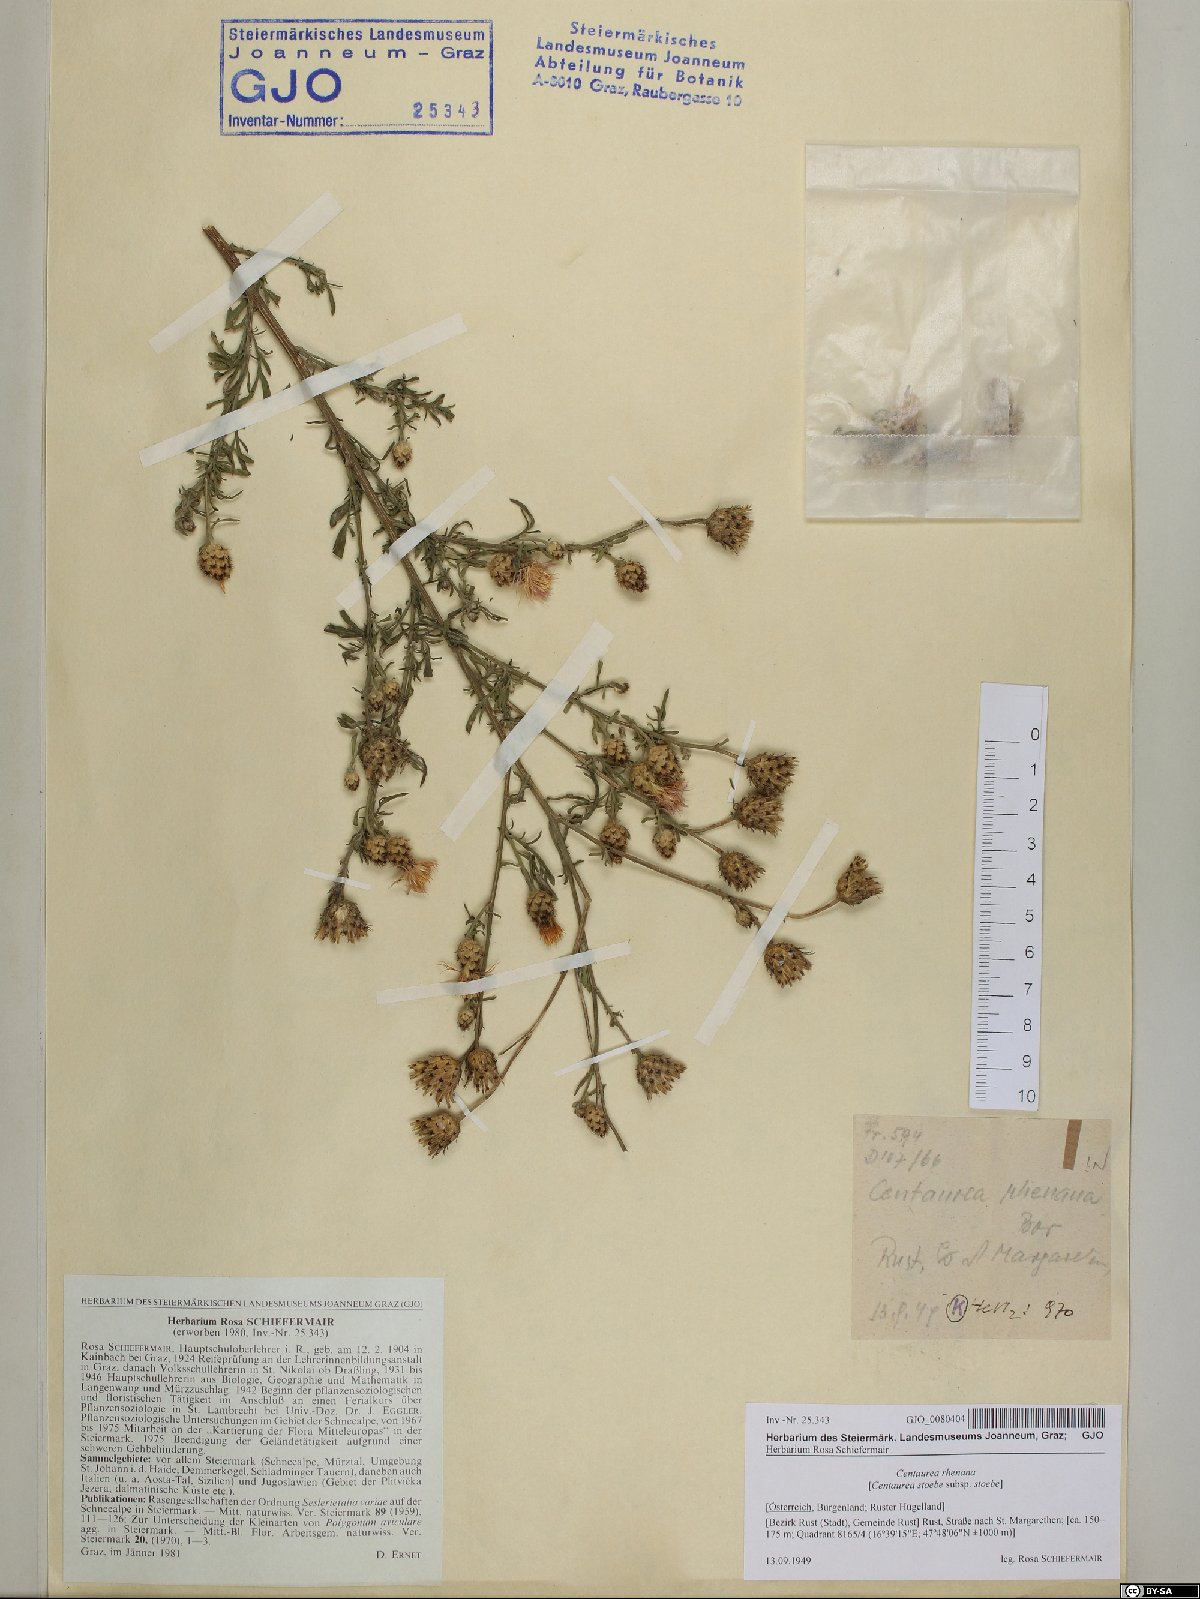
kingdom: Plantae
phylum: Tracheophyta
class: Magnoliopsida
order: Asterales
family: Asteraceae
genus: Centaurea
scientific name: Centaurea stoebe
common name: Spotted knapweed
